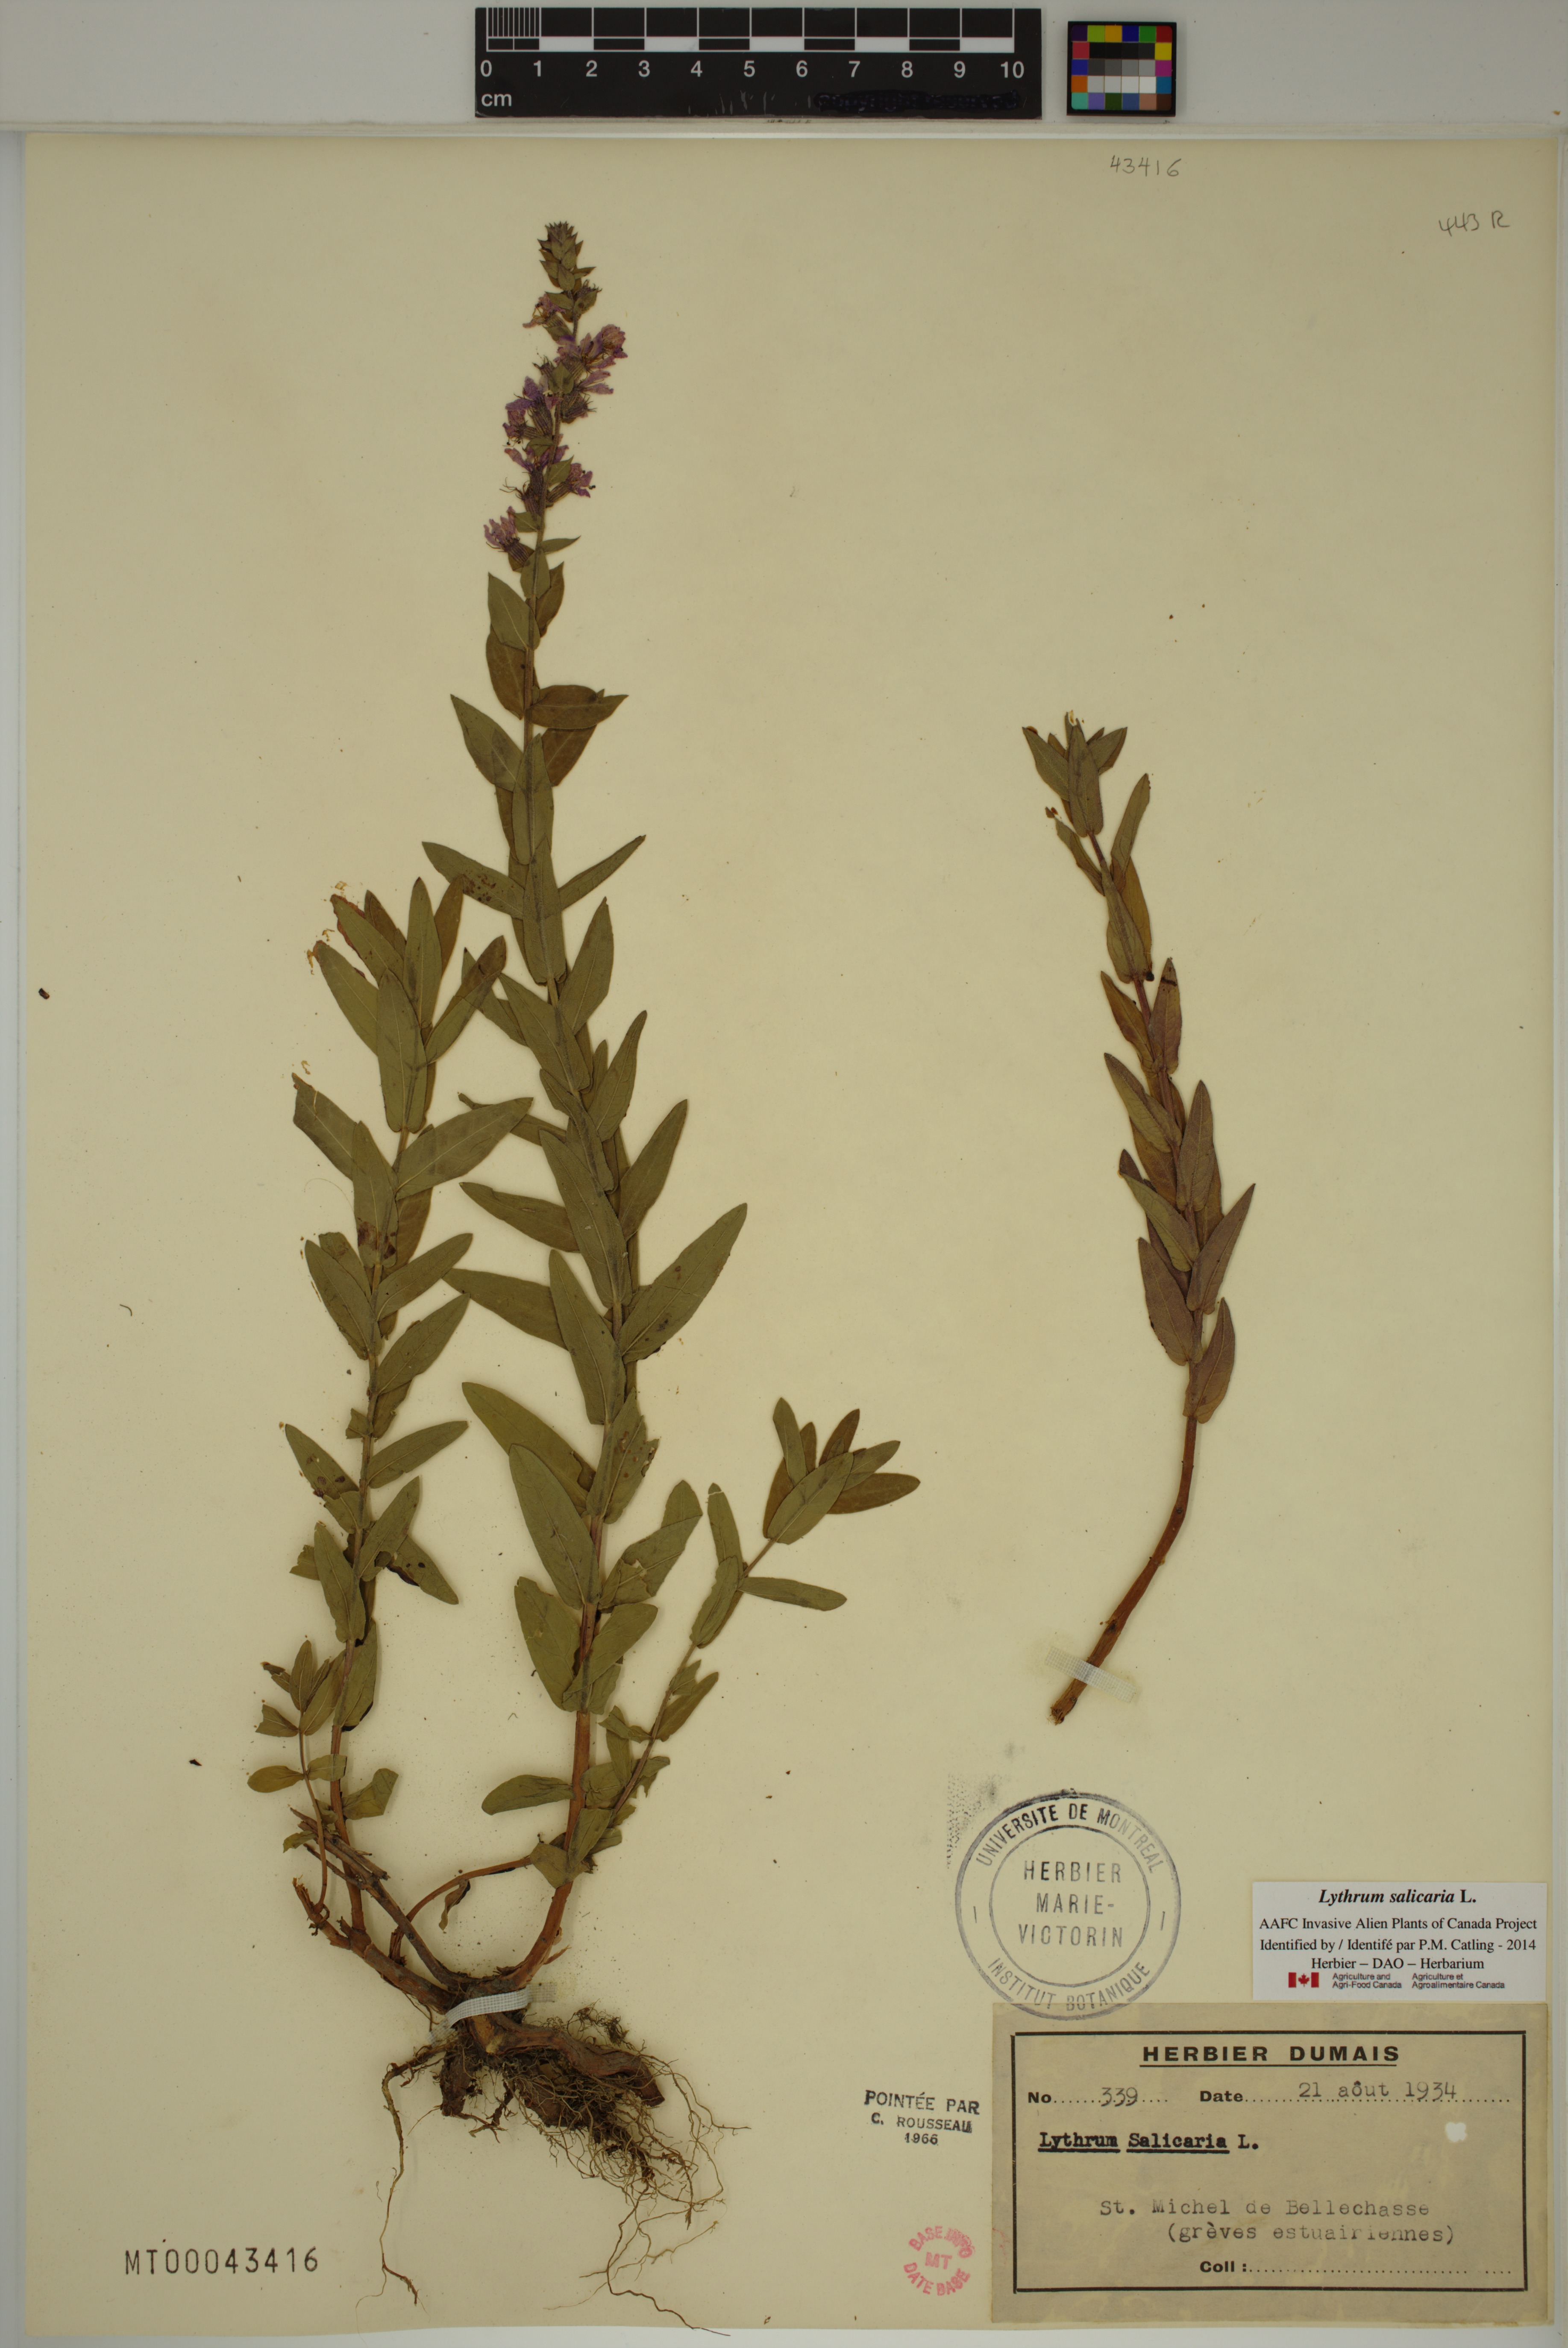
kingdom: Plantae
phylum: Tracheophyta
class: Magnoliopsida
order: Myrtales
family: Lythraceae
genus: Lythrum
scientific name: Lythrum salicaria
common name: Purple loosestrife
